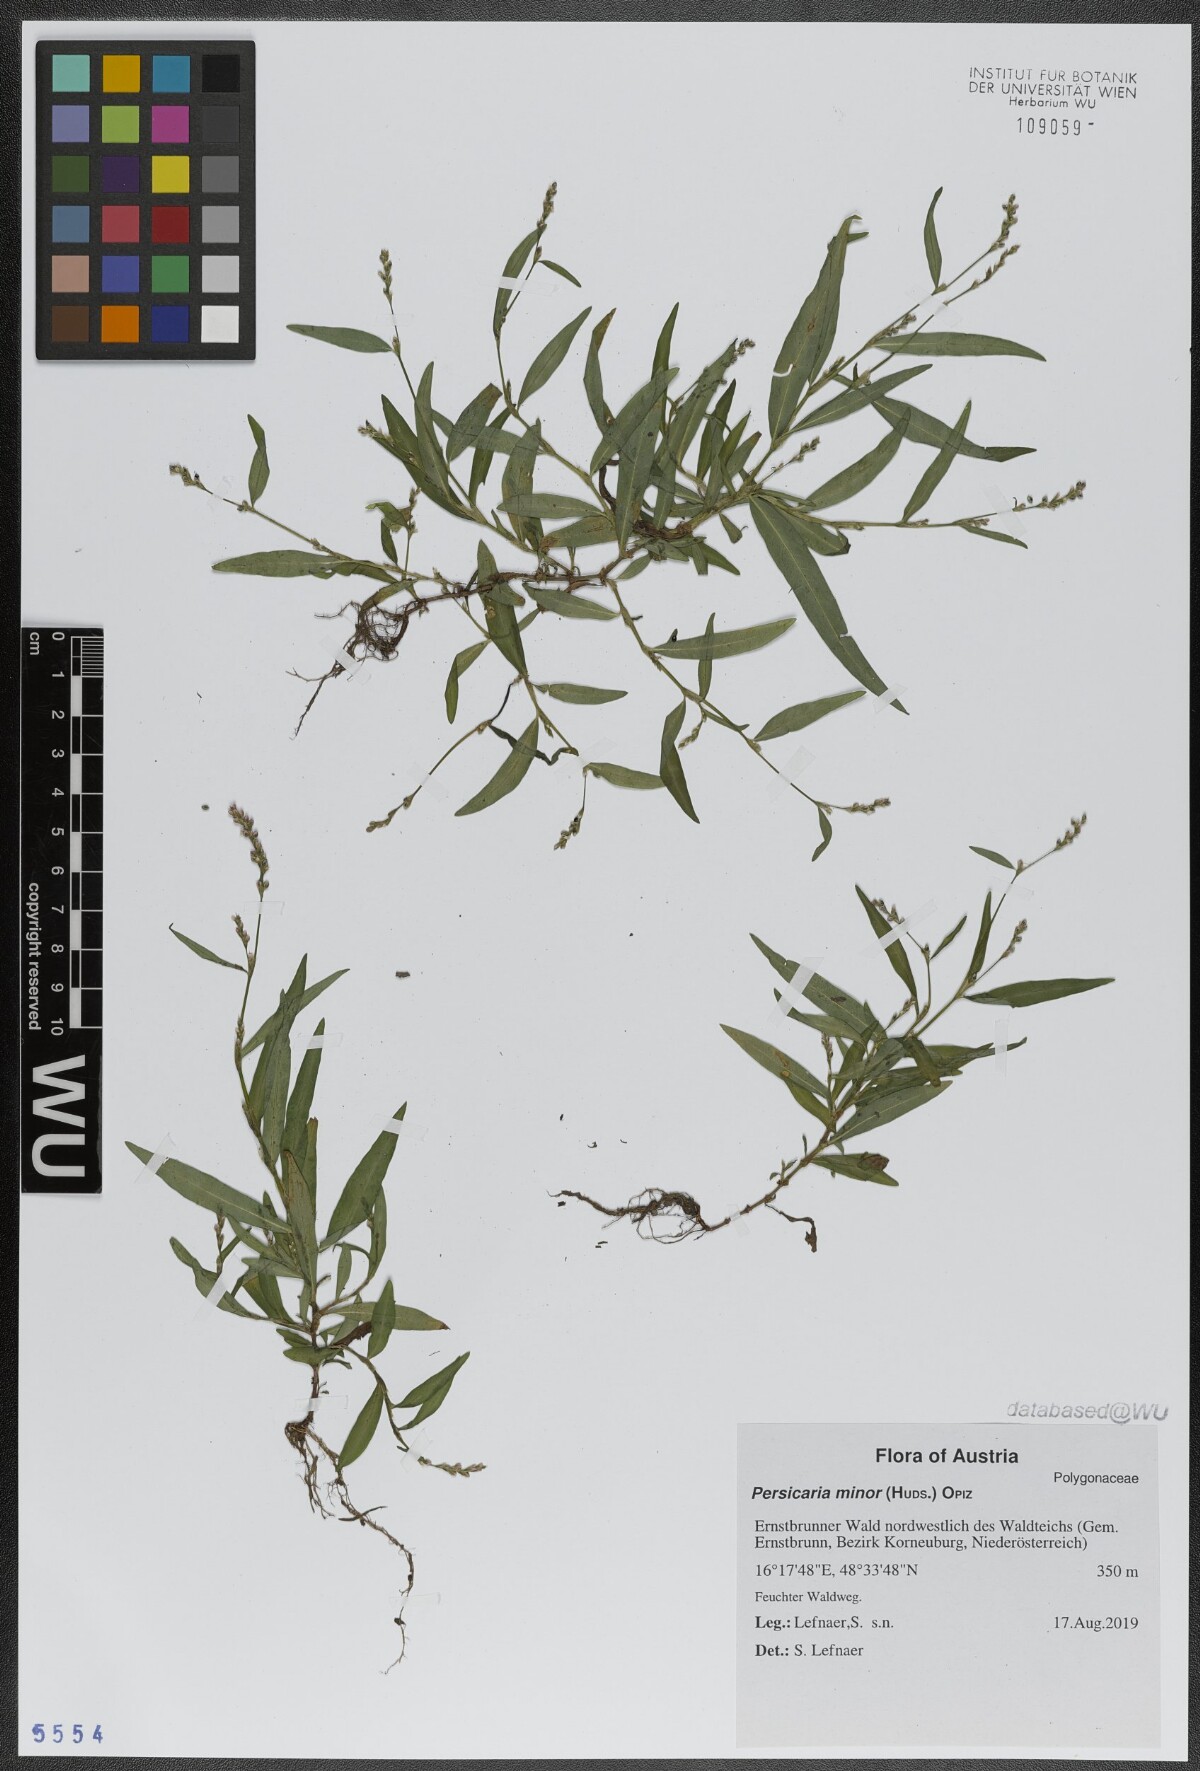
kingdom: Plantae
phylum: Tracheophyta
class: Magnoliopsida
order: Caryophyllales
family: Polygonaceae
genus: Persicaria
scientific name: Persicaria minor
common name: Small water-pepper
